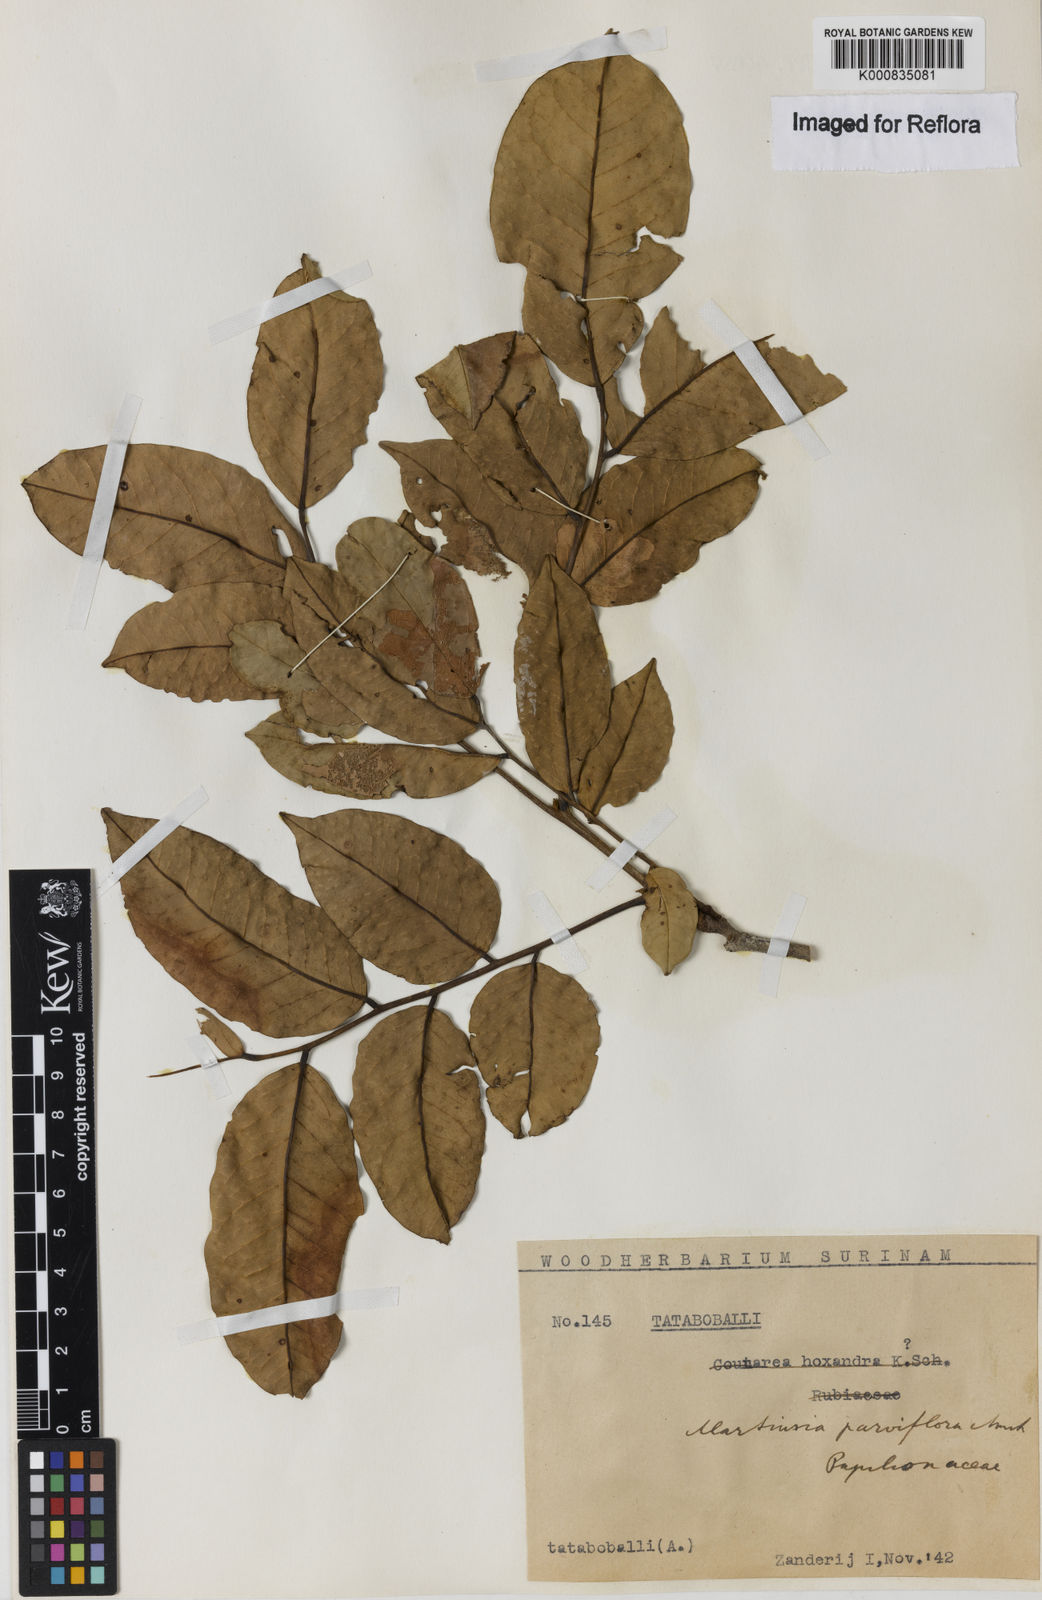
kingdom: Plantae
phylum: Tracheophyta
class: Magnoliopsida
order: Gentianales
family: Rubiaceae
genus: Coutarea
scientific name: Coutarea hexandra
